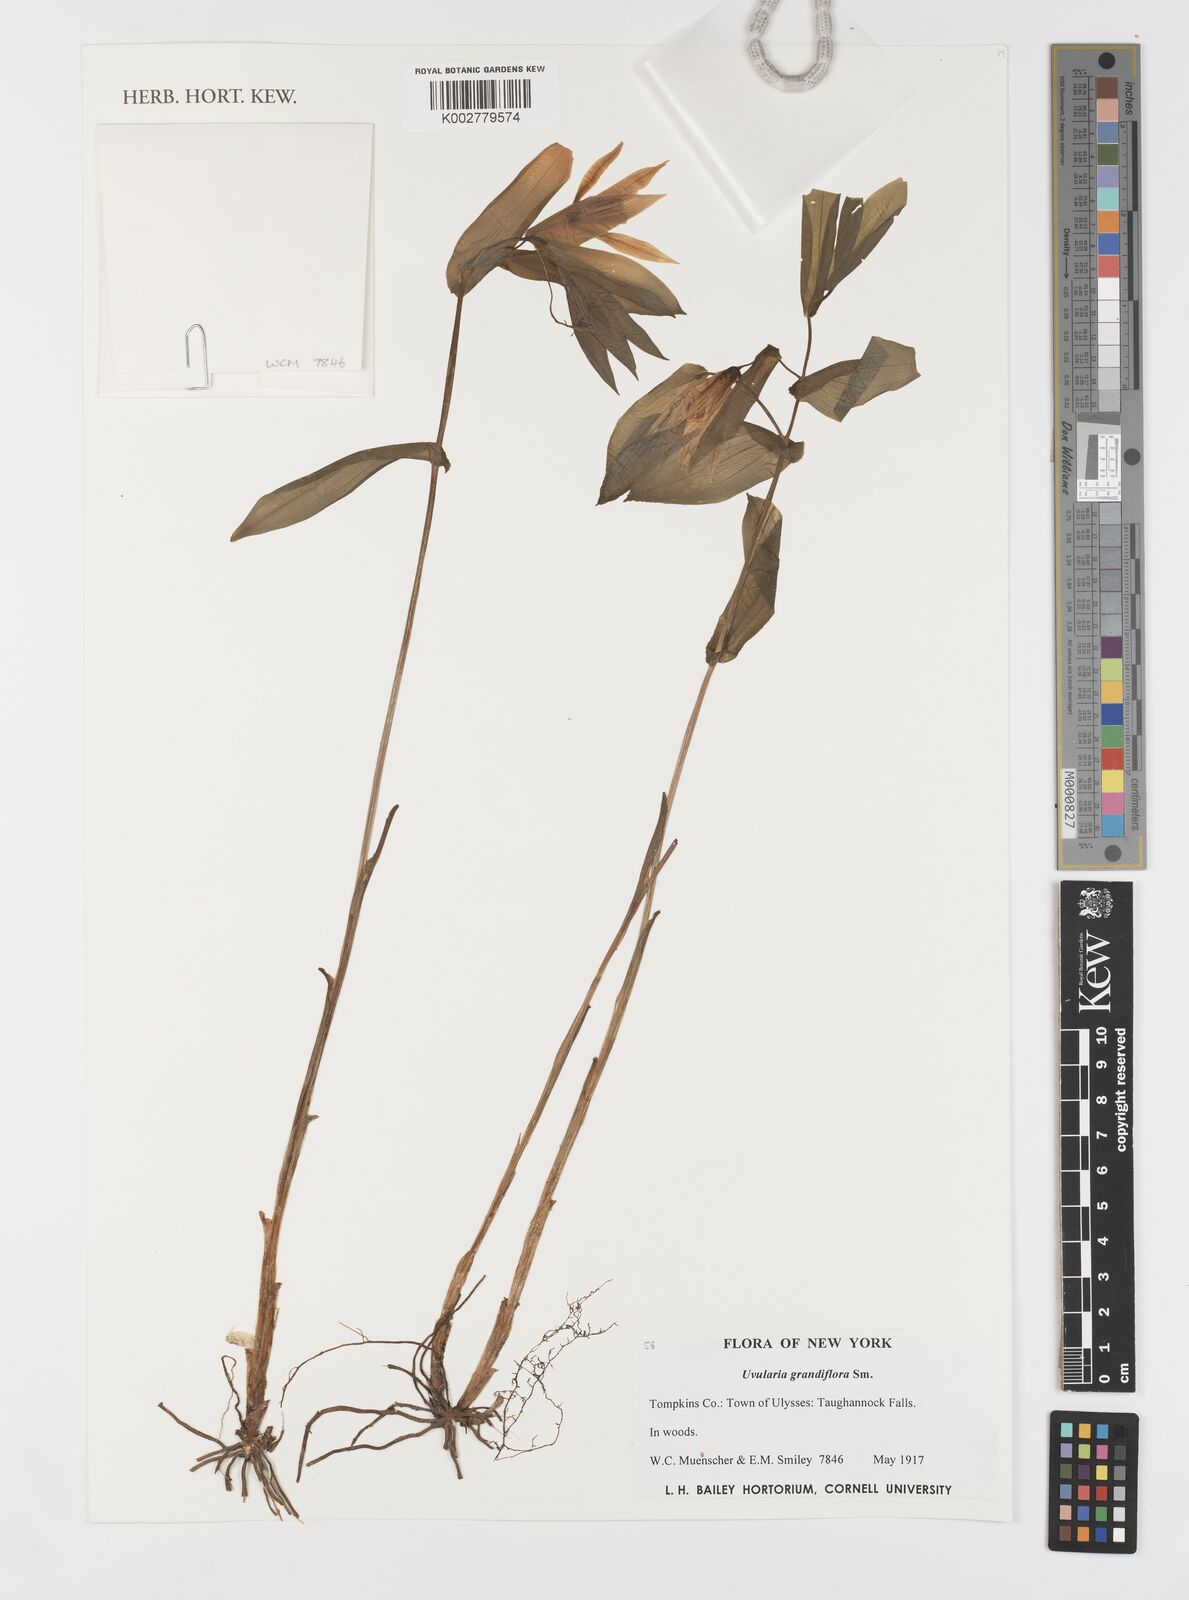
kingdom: Plantae
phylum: Tracheophyta
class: Liliopsida
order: Liliales
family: Colchicaceae
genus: Uvularia
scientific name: Uvularia grandiflora
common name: Bellwort
